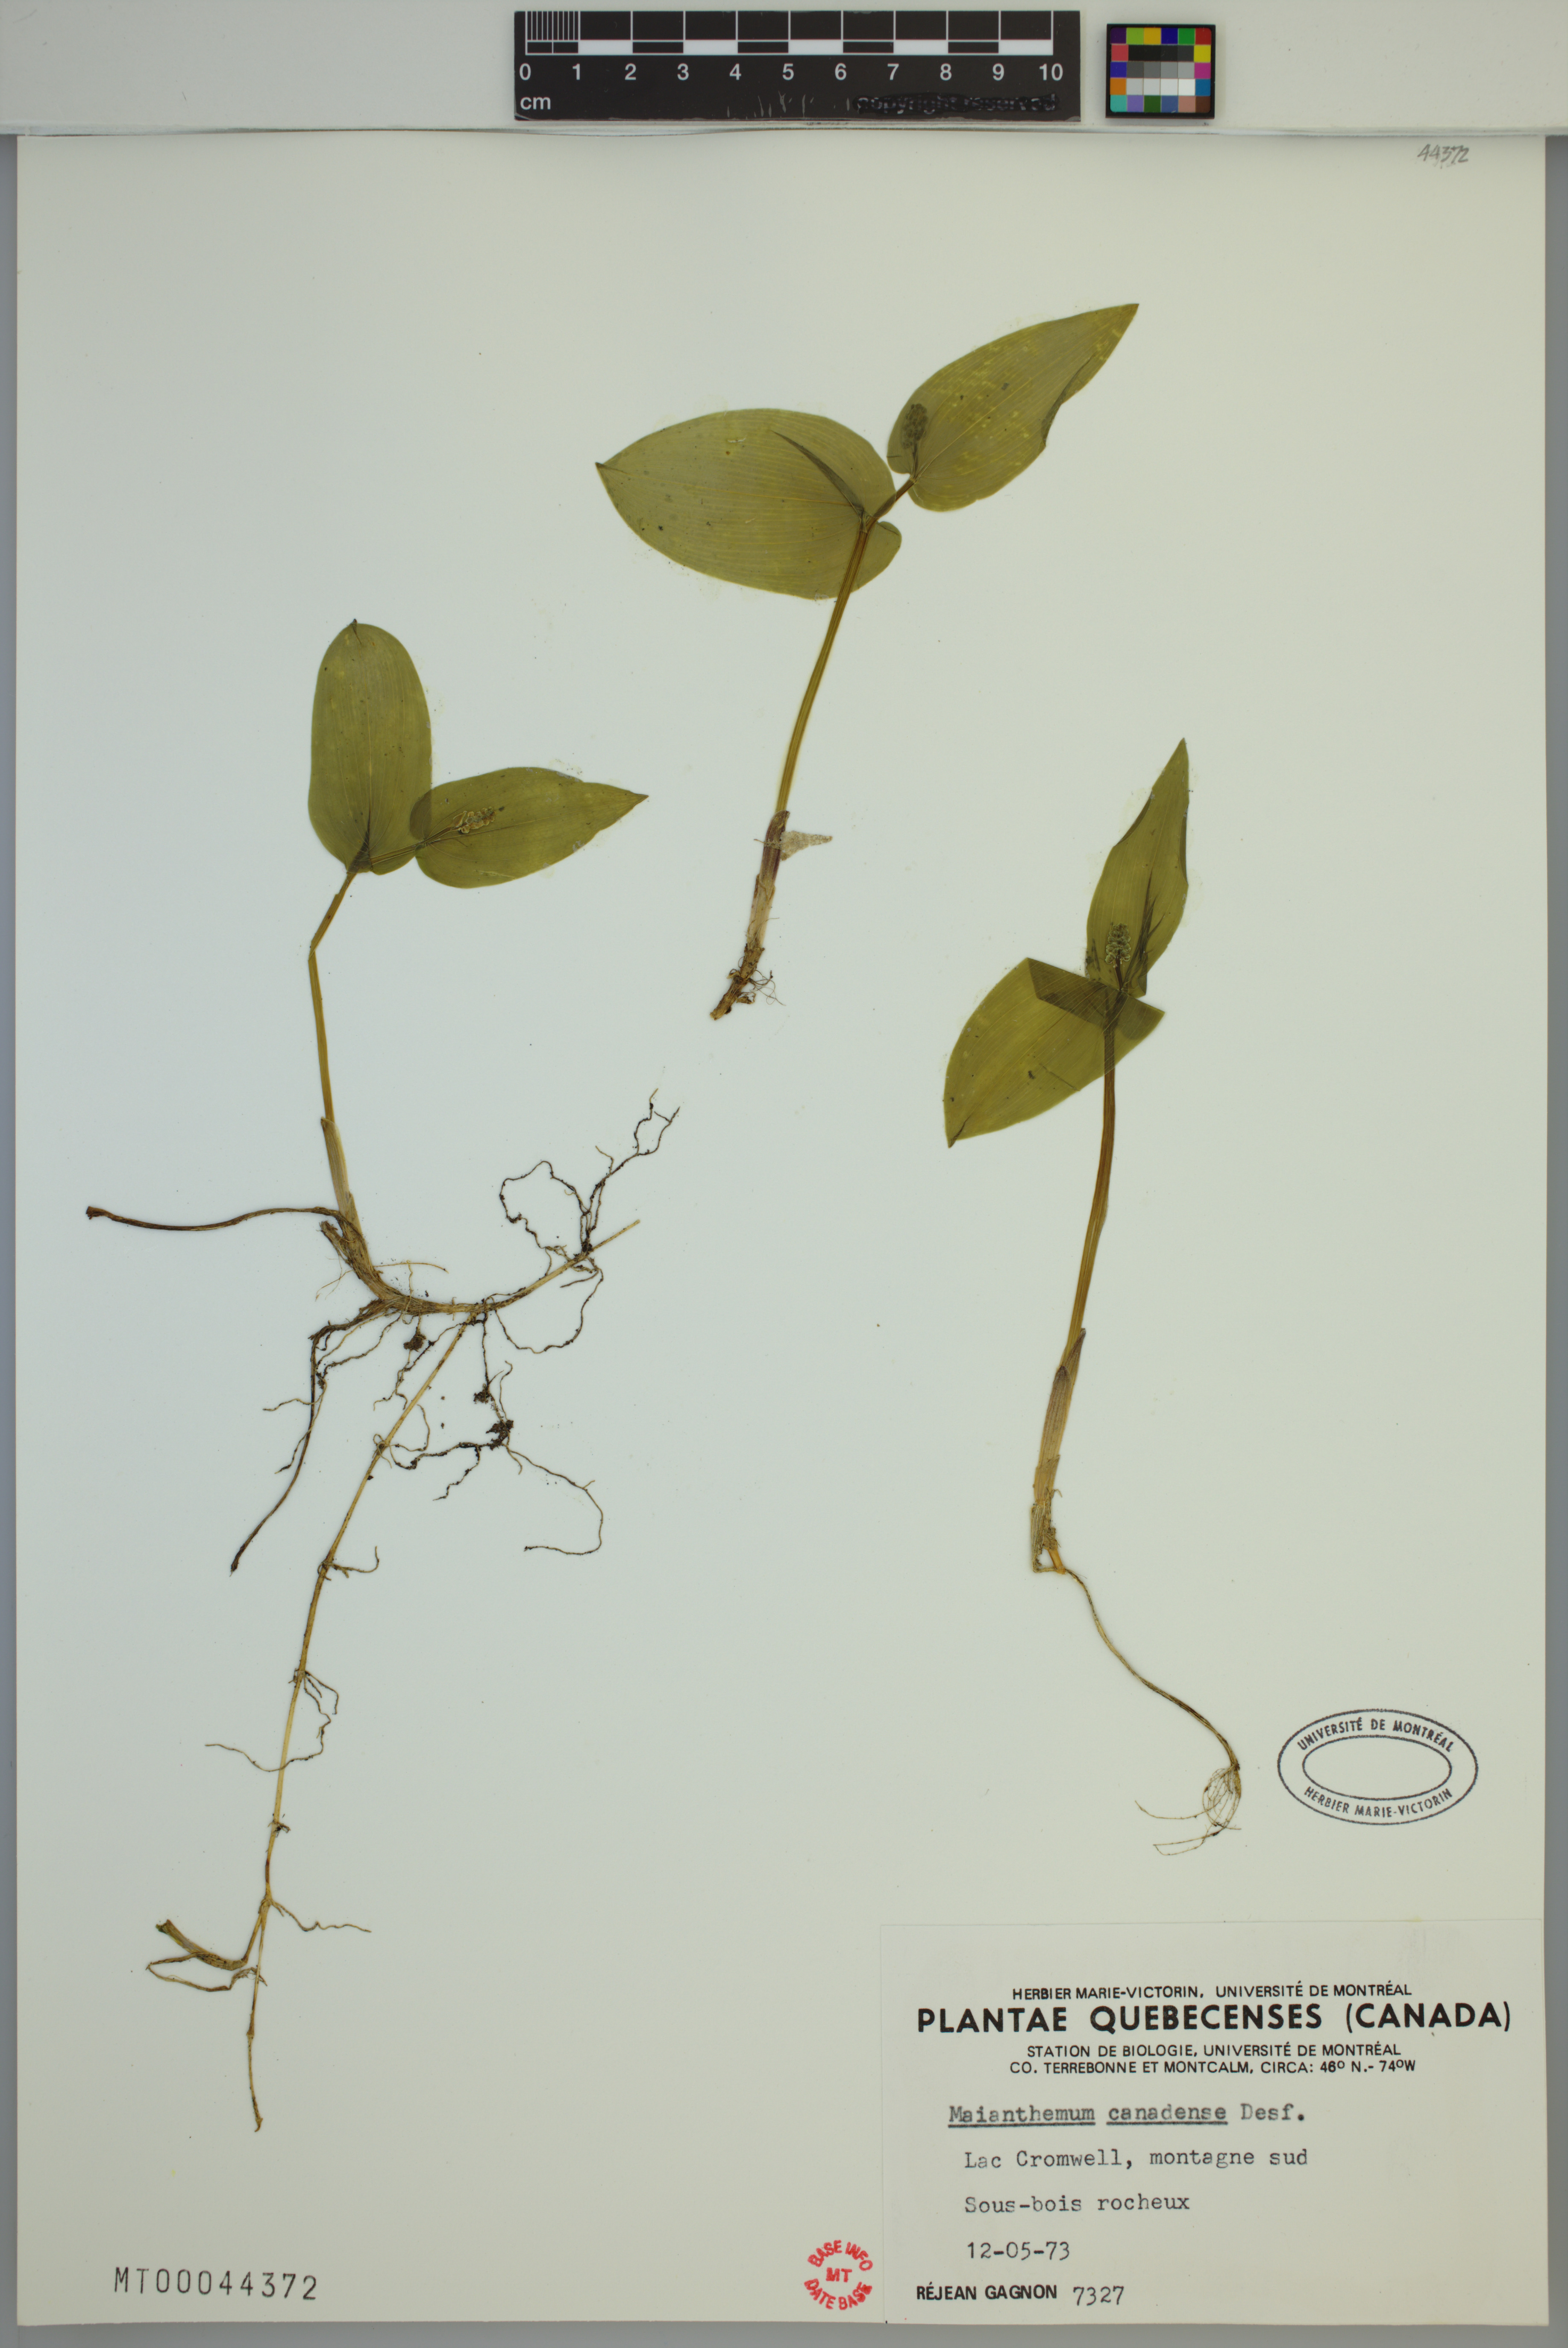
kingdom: Plantae
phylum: Tracheophyta
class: Liliopsida
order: Asparagales
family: Asparagaceae
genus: Maianthemum
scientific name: Maianthemum canadense
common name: False lily-of-the-valley
